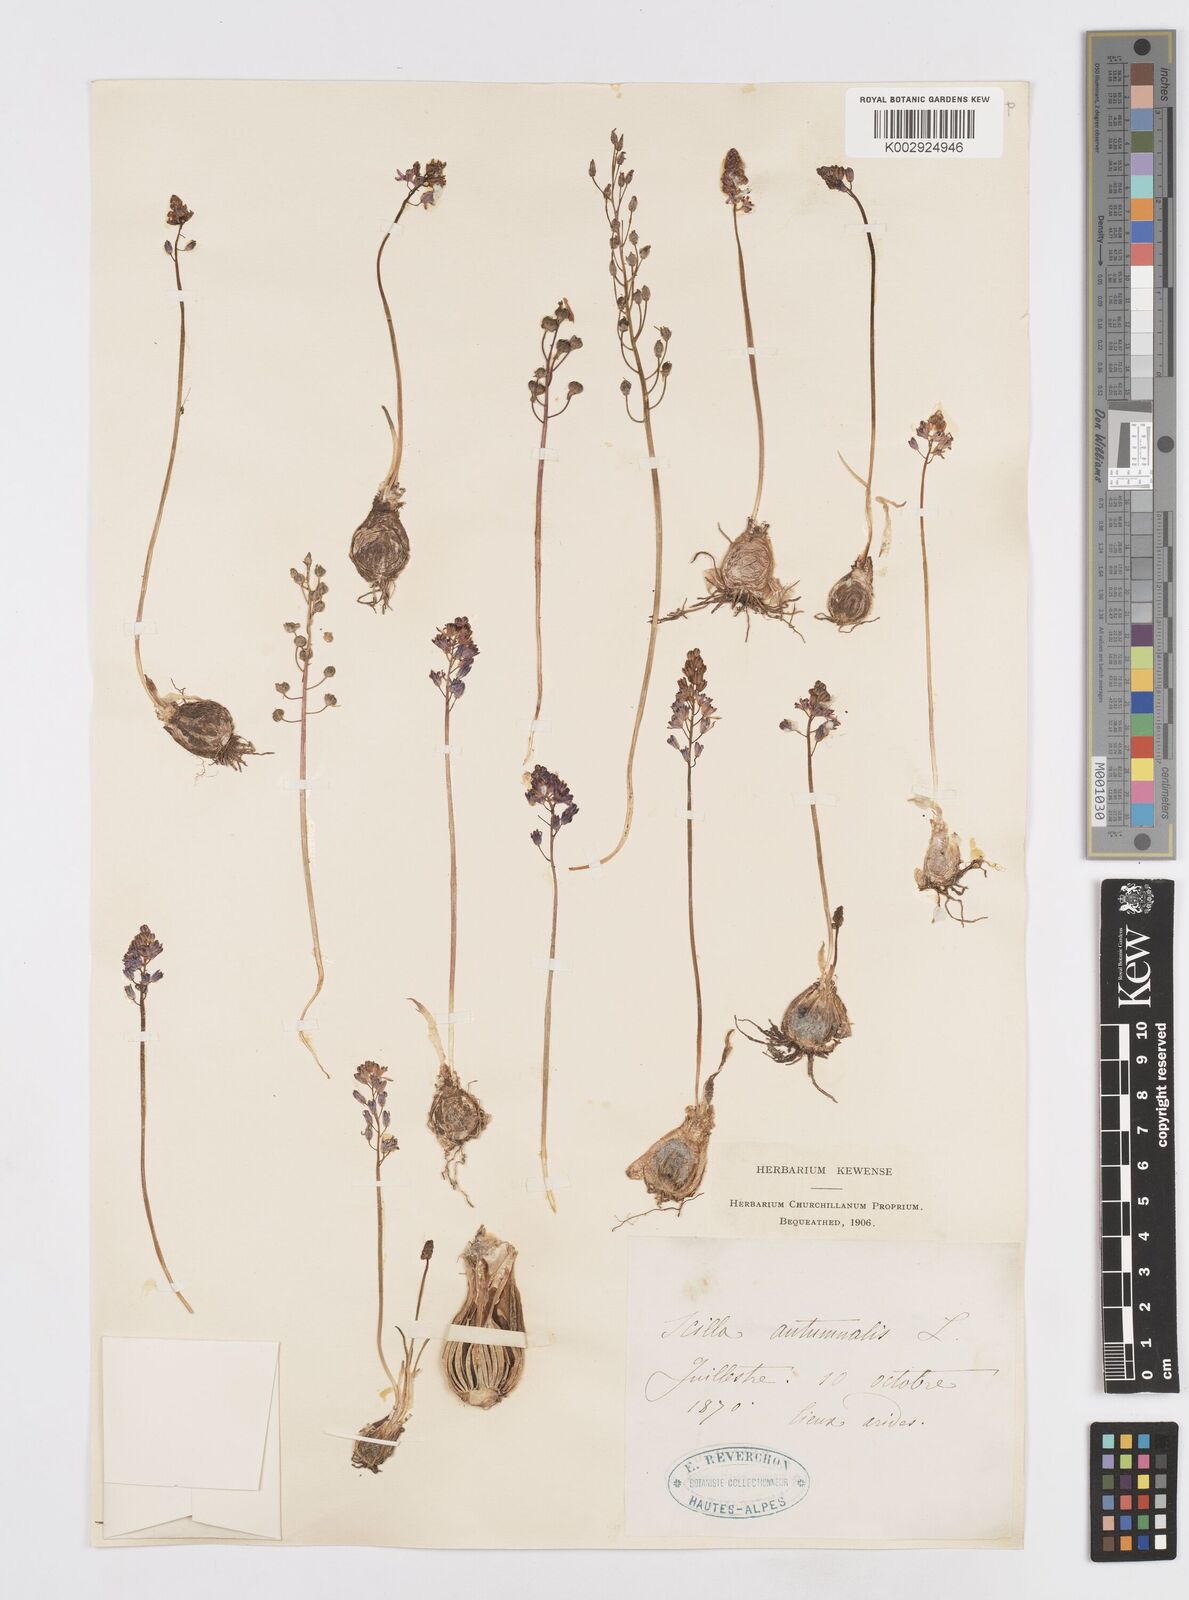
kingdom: Plantae
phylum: Tracheophyta
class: Liliopsida
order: Asparagales
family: Asparagaceae
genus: Prospero
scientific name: Prospero autumnale
